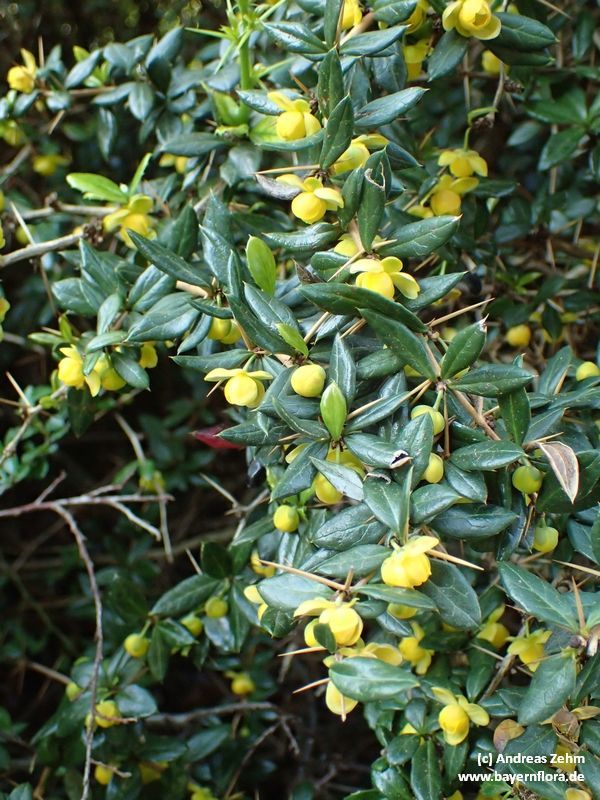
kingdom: Plantae
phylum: Tracheophyta
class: Magnoliopsida
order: Ranunculales
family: Berberidaceae
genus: Berberis
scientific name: Berberis candidula
